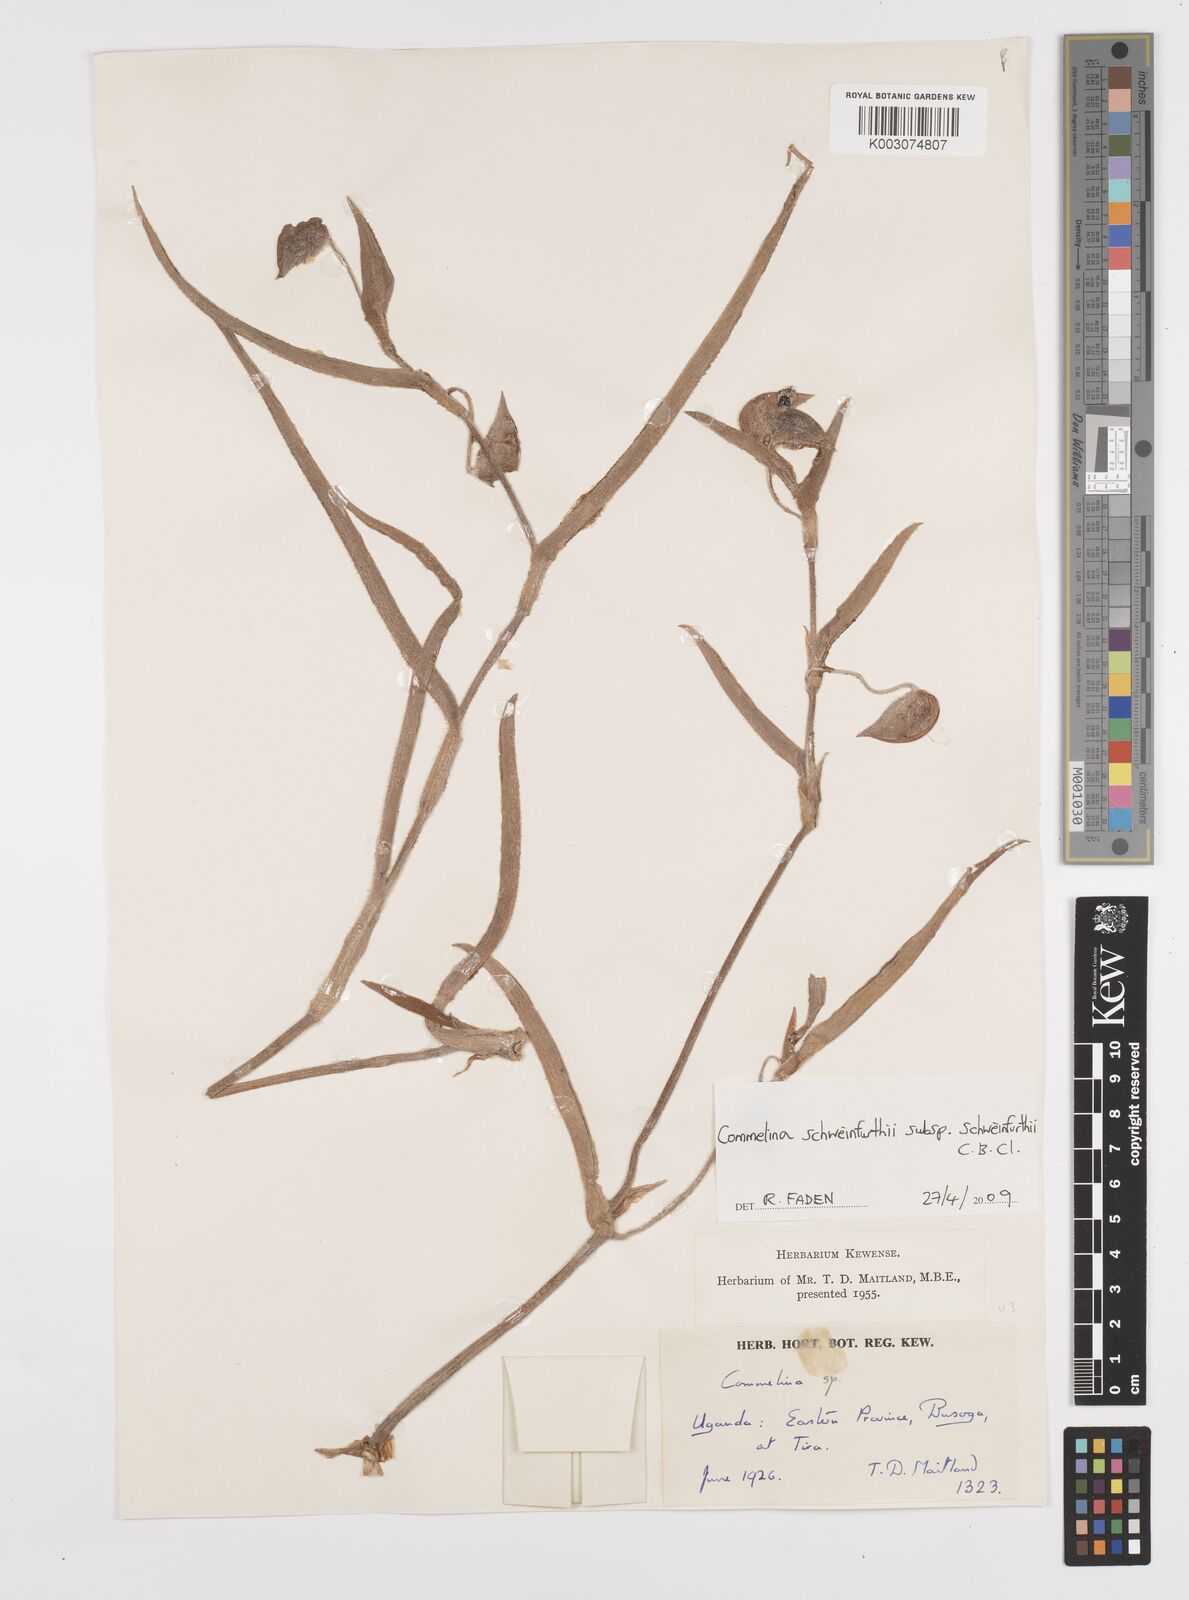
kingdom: Plantae
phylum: Tracheophyta
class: Liliopsida
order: Commelinales
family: Commelinaceae
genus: Commelina
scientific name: Commelina schweinfurthii
